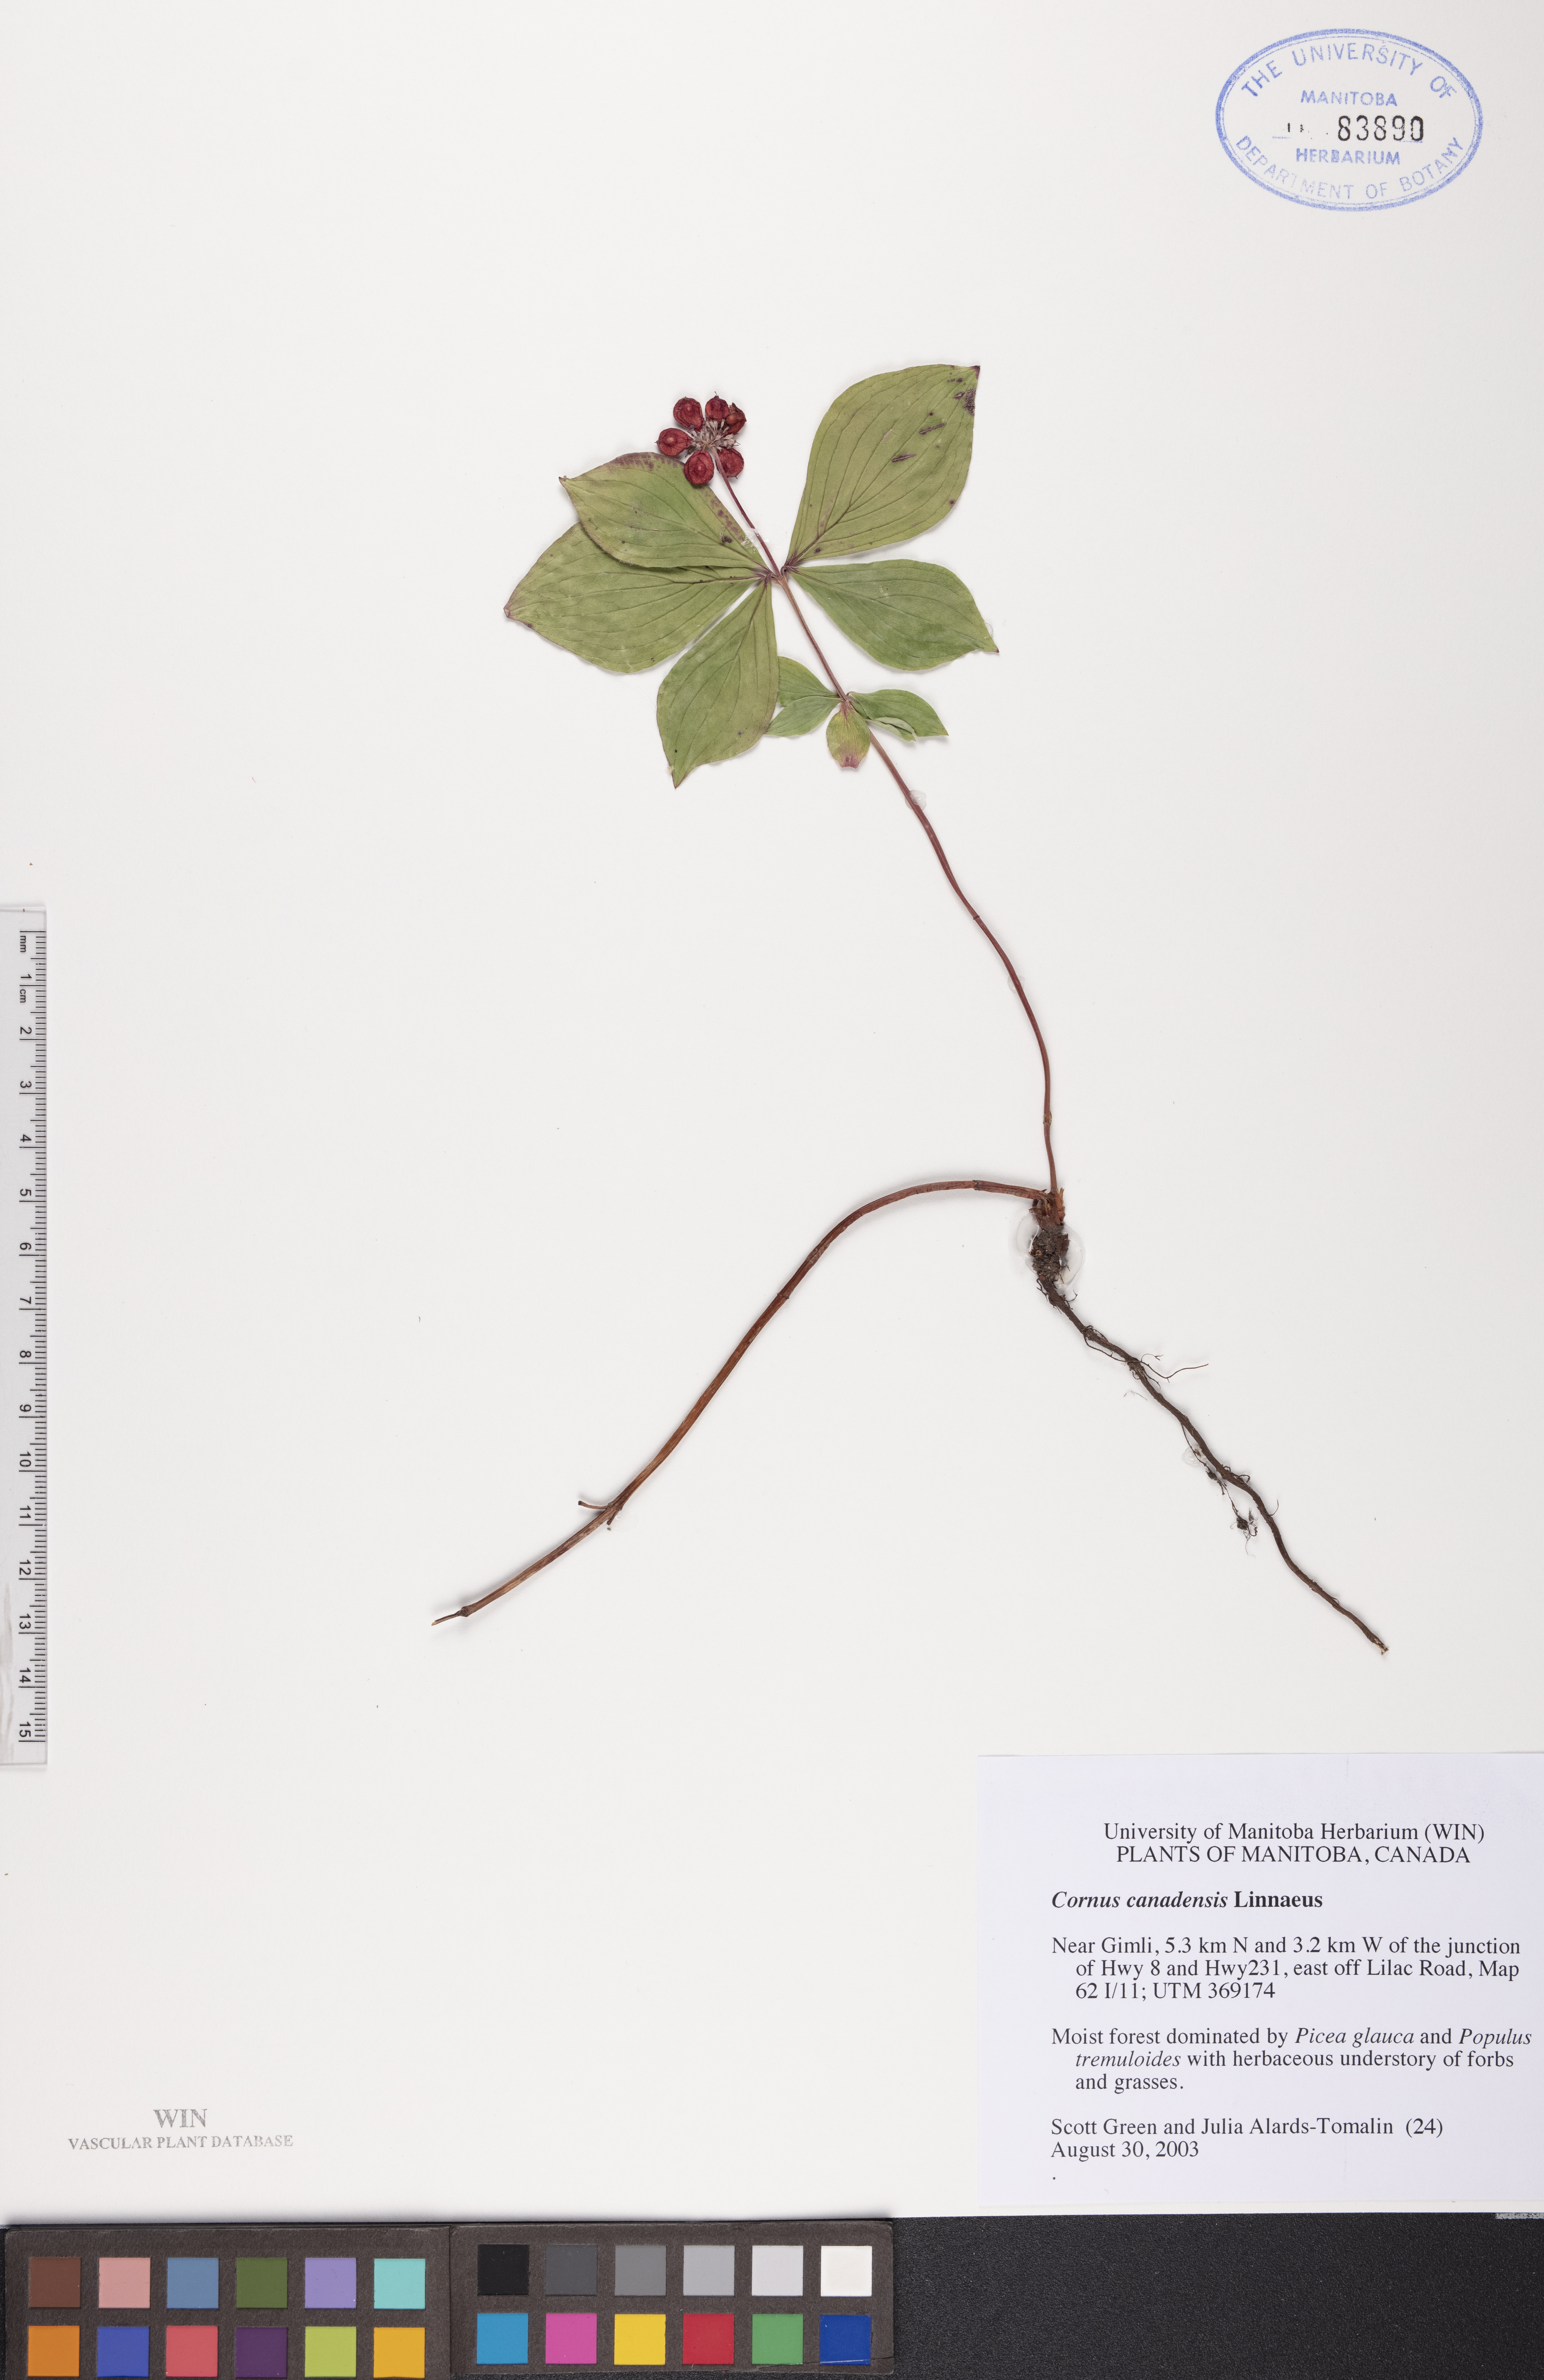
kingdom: Plantae
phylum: Tracheophyta
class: Magnoliopsida
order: Cornales
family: Cornaceae
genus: Cornus
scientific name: Cornus canadensis
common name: Creeping dogwood
